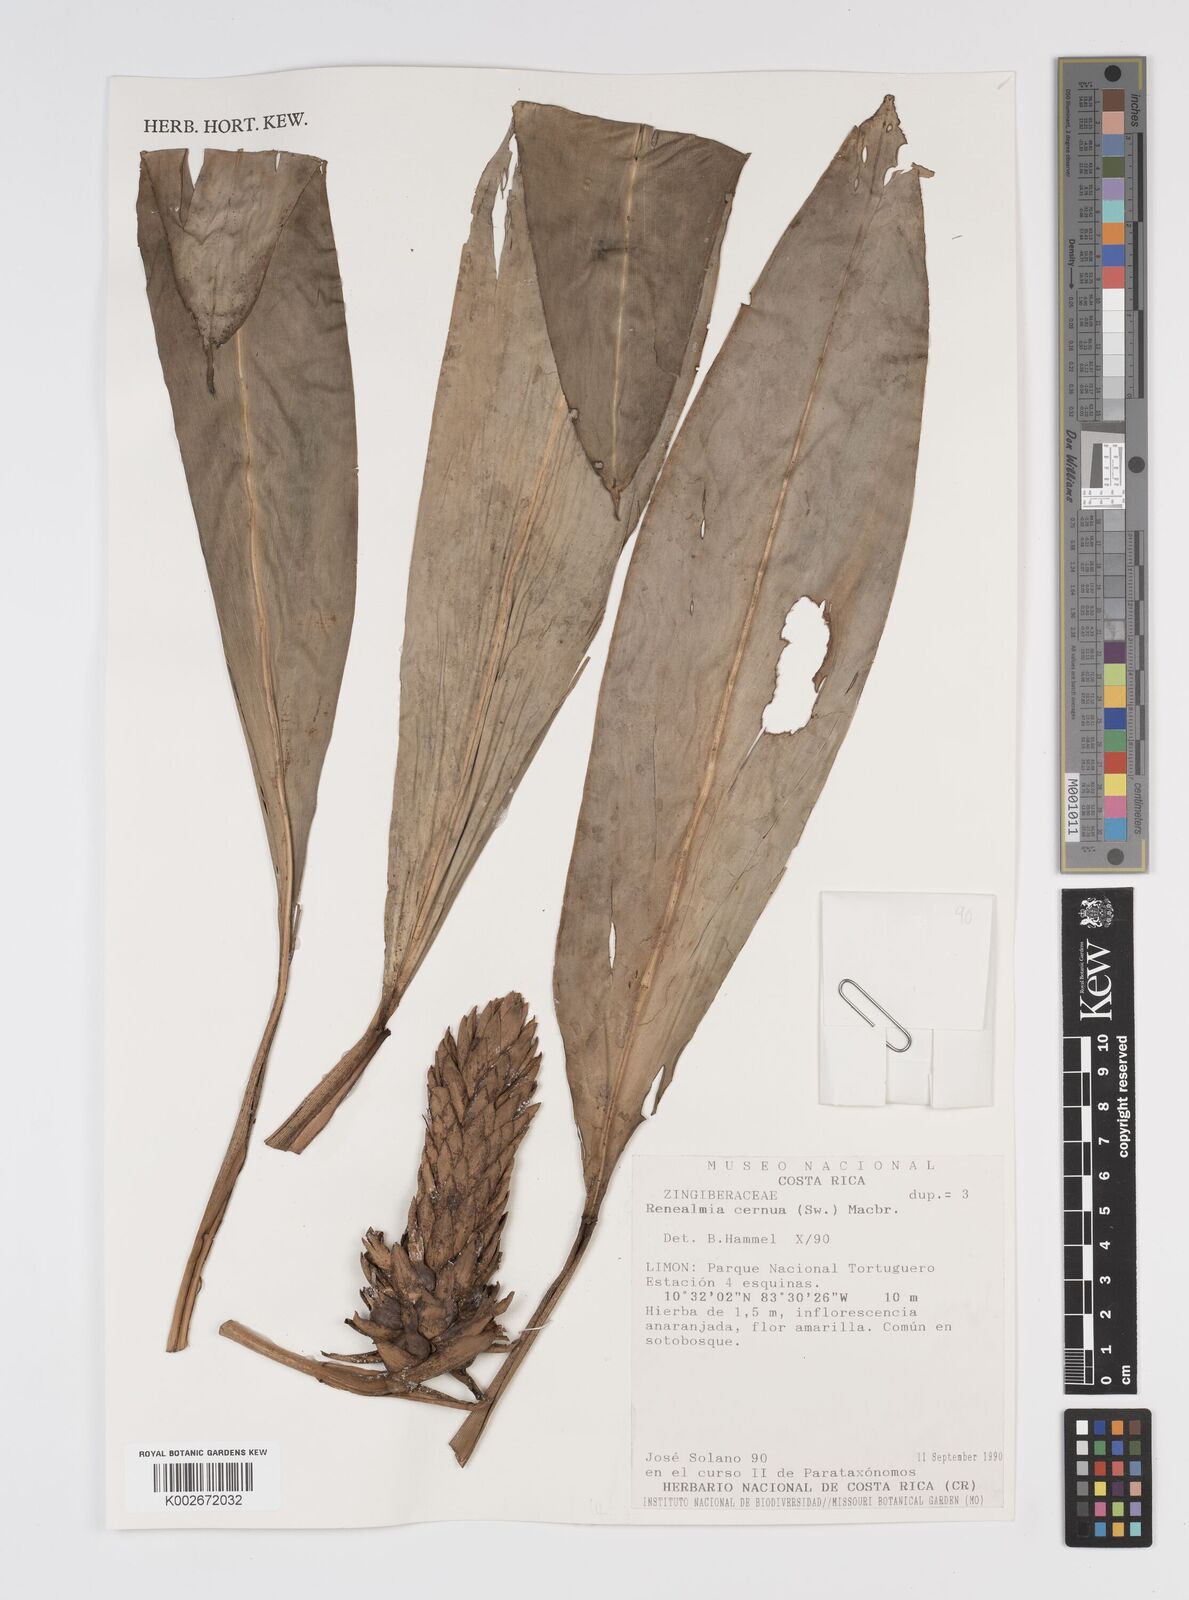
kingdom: Plantae
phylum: Tracheophyta
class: Liliopsida
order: Zingiberales
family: Zingiberaceae
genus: Renealmia
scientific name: Renealmia cernua
